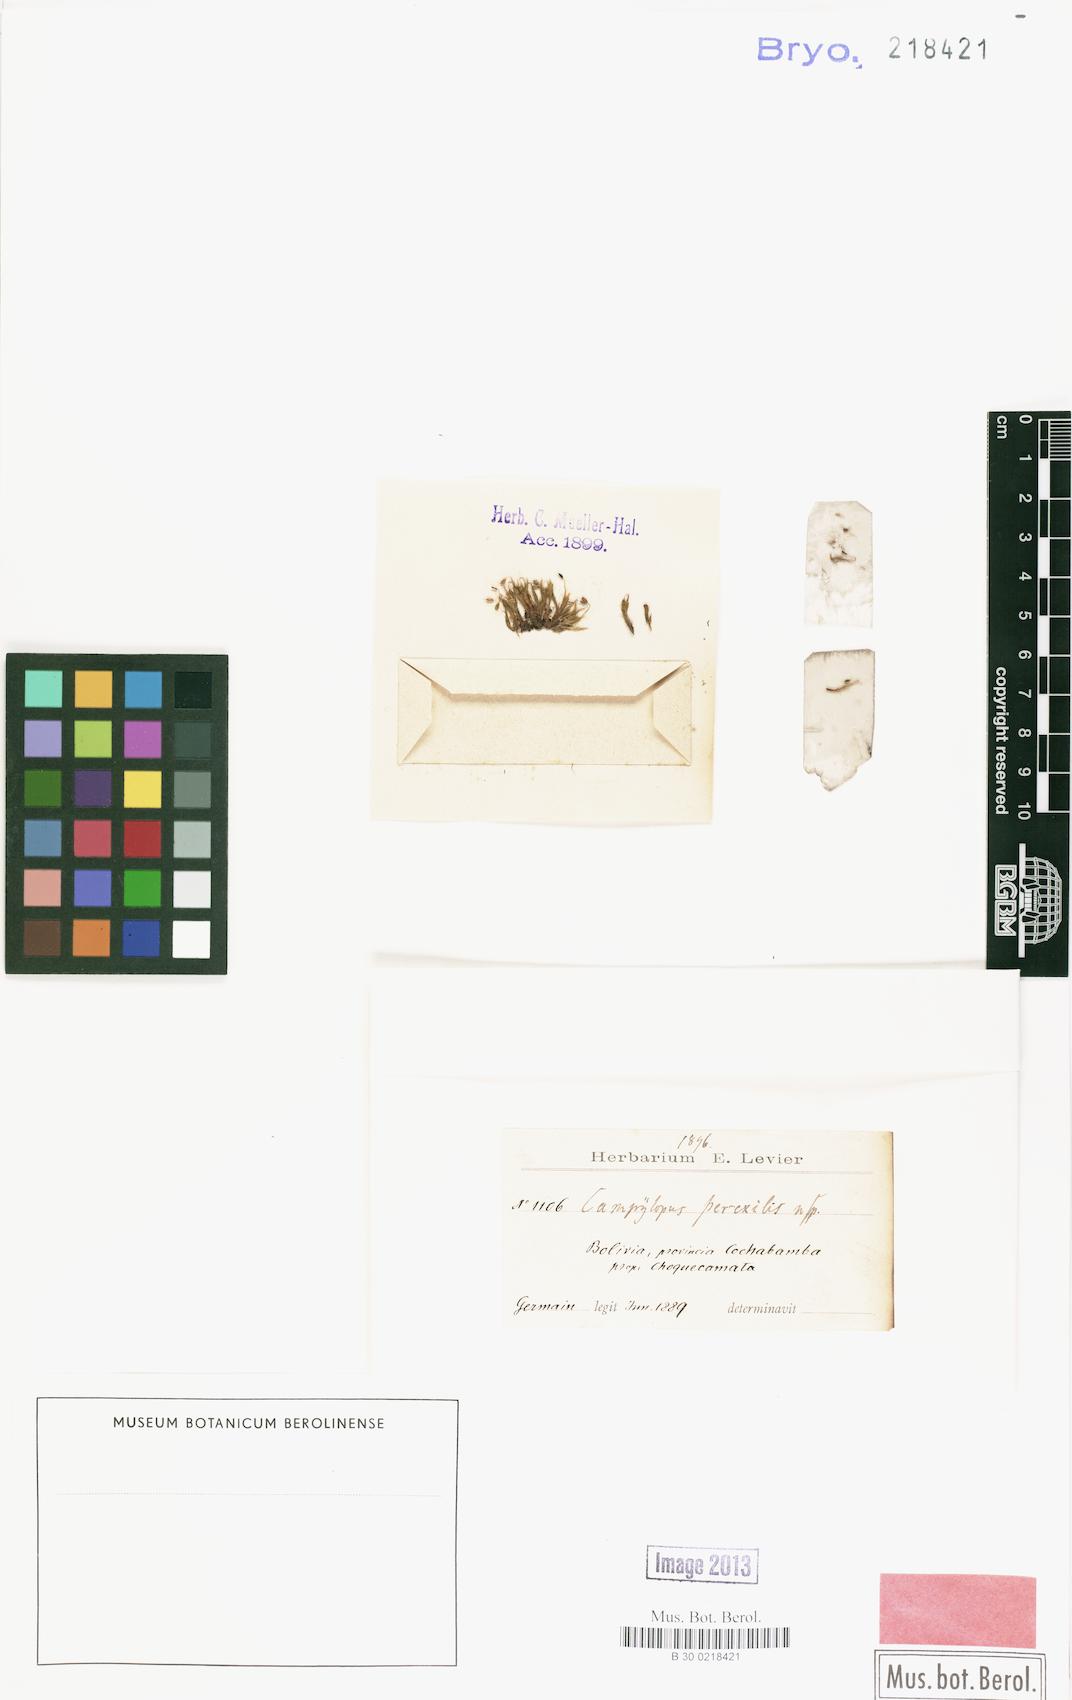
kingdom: Plantae
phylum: Bryophyta
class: Bryopsida
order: Dicranales
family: Leucobryaceae
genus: Campylopus
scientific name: Campylopus perexilis
